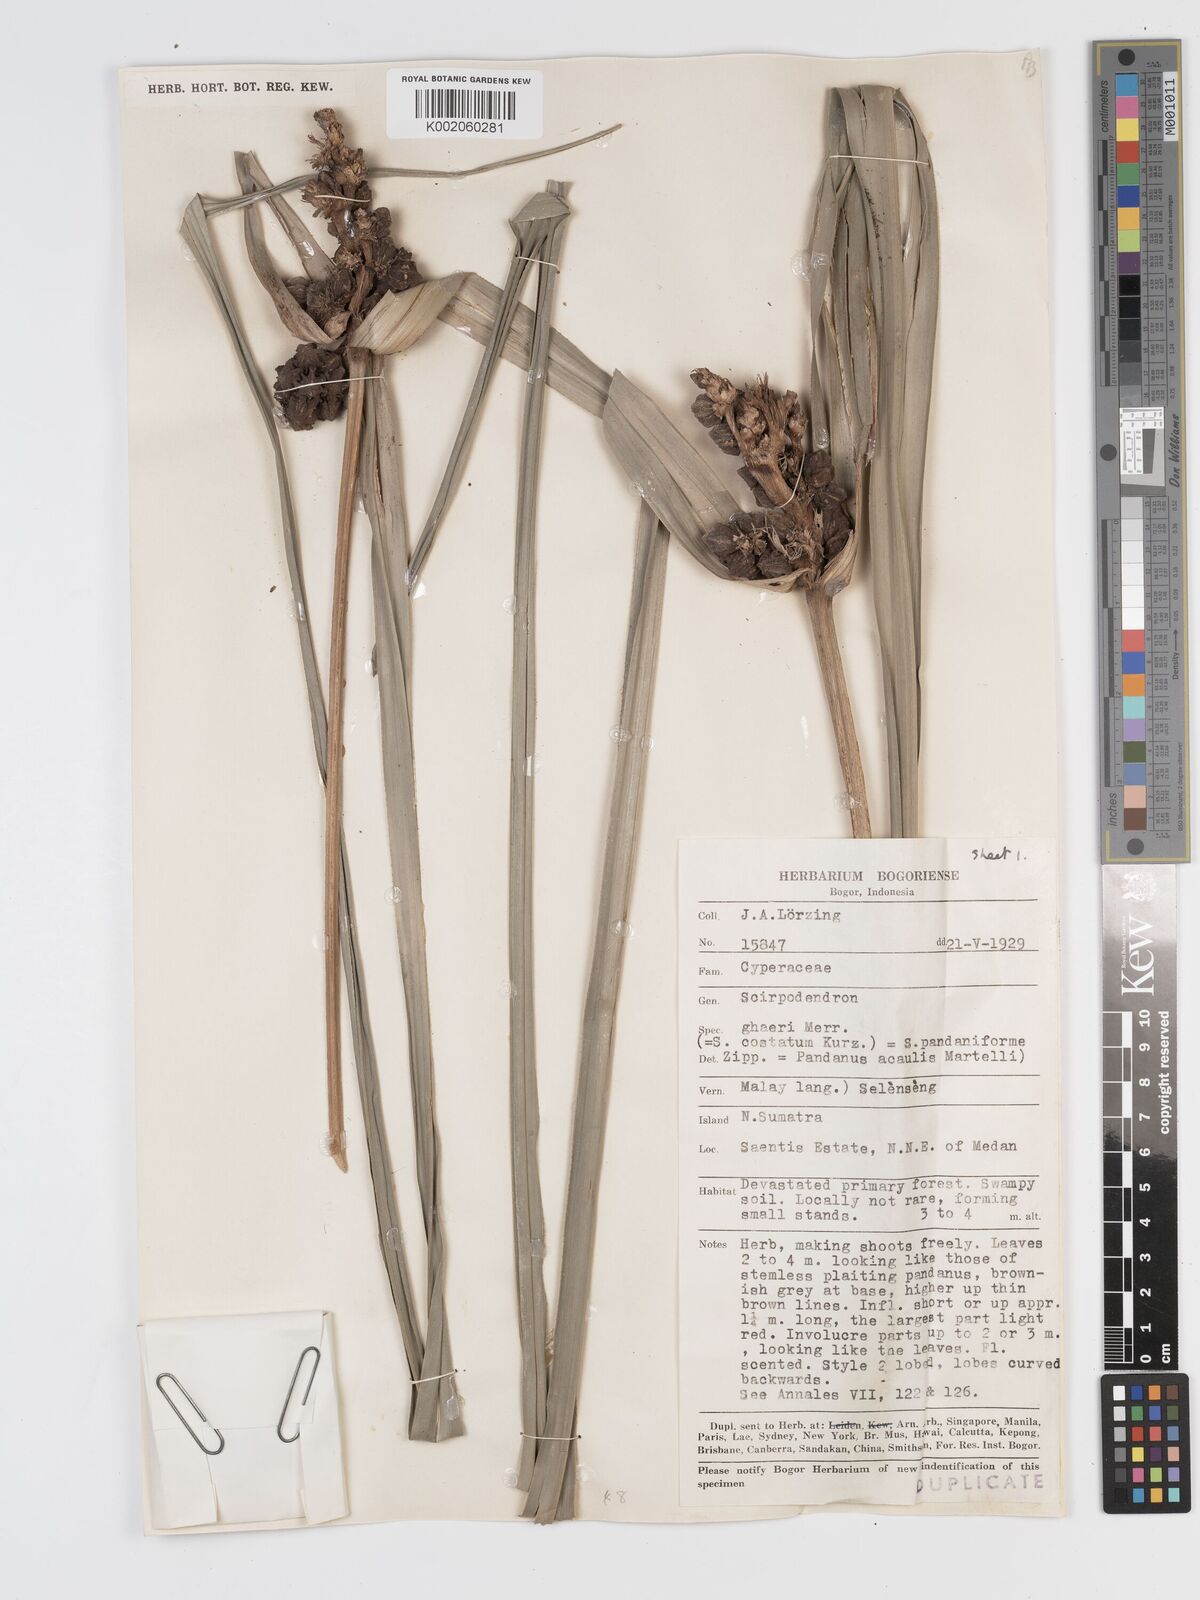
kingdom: Plantae
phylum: Tracheophyta
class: Liliopsida
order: Poales
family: Cyperaceae
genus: Scirpodendron
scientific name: Scirpodendron ghaeri
